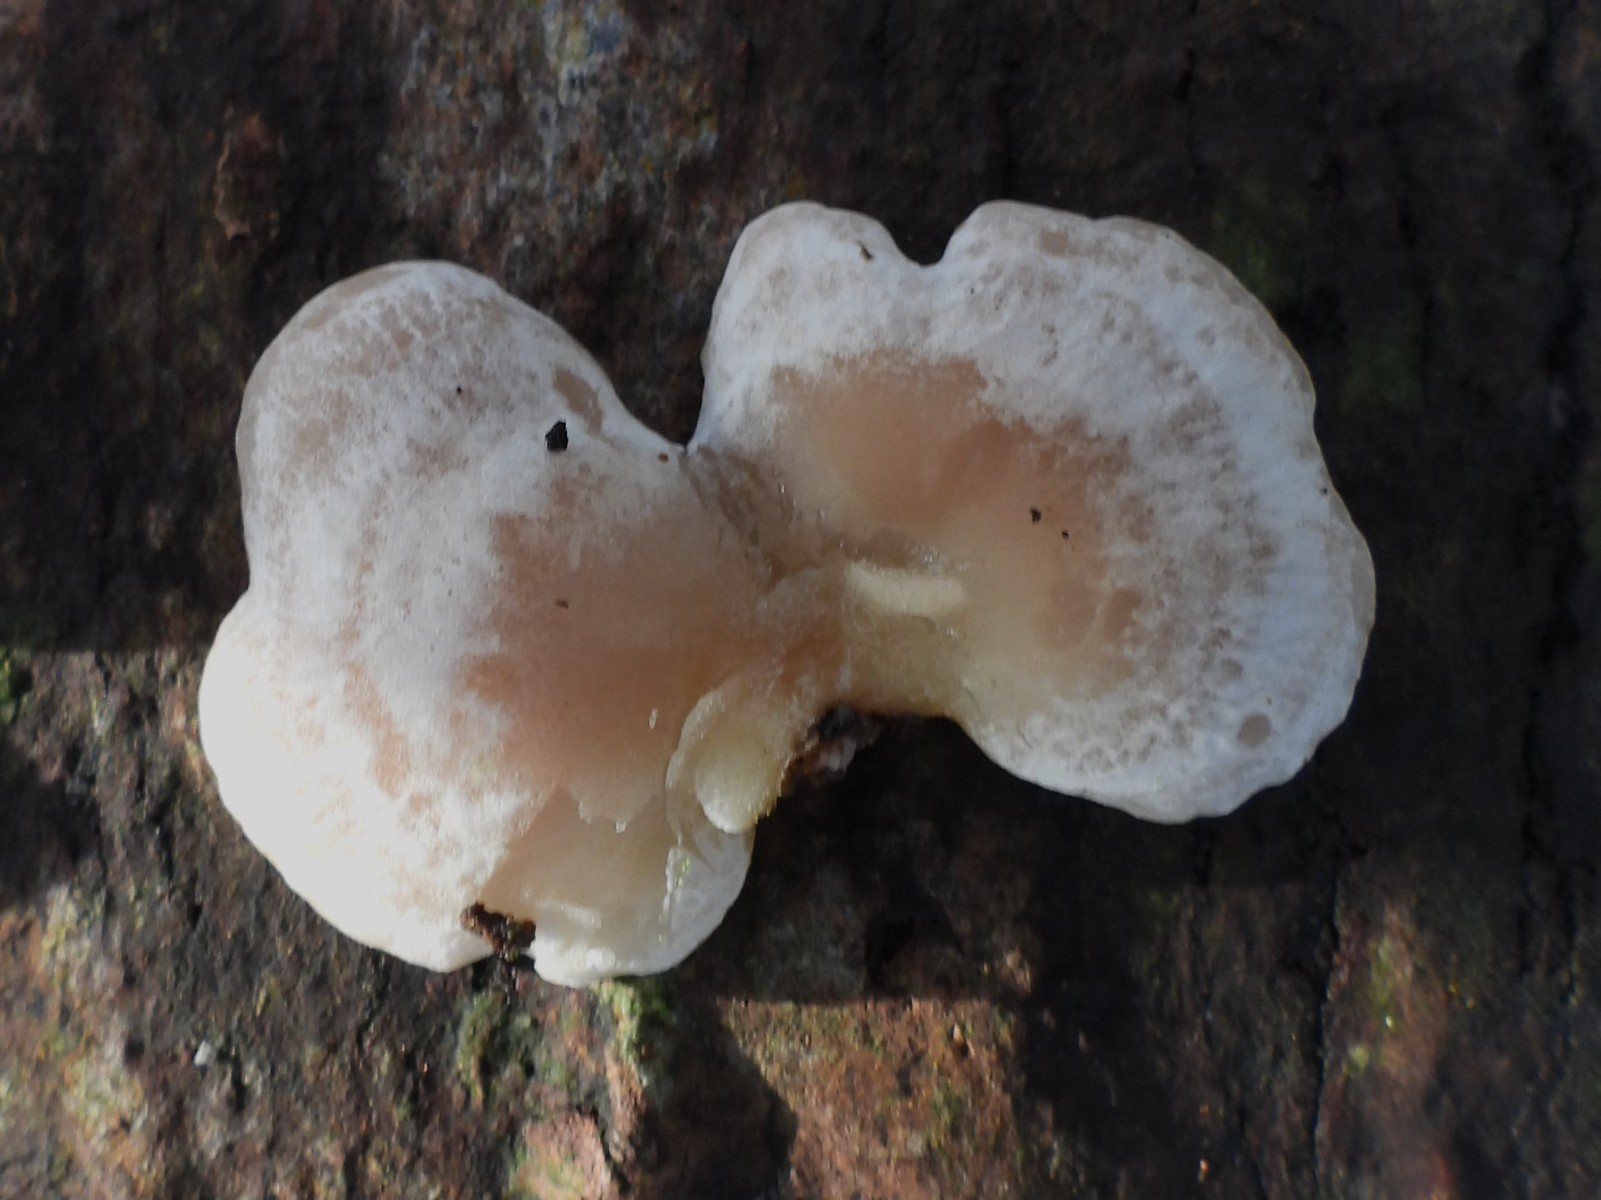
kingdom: Fungi
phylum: Basidiomycota
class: Agaricomycetes
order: Agaricales
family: Mycenaceae
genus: Panellus
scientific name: Panellus mitis
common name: mild epaulethat
